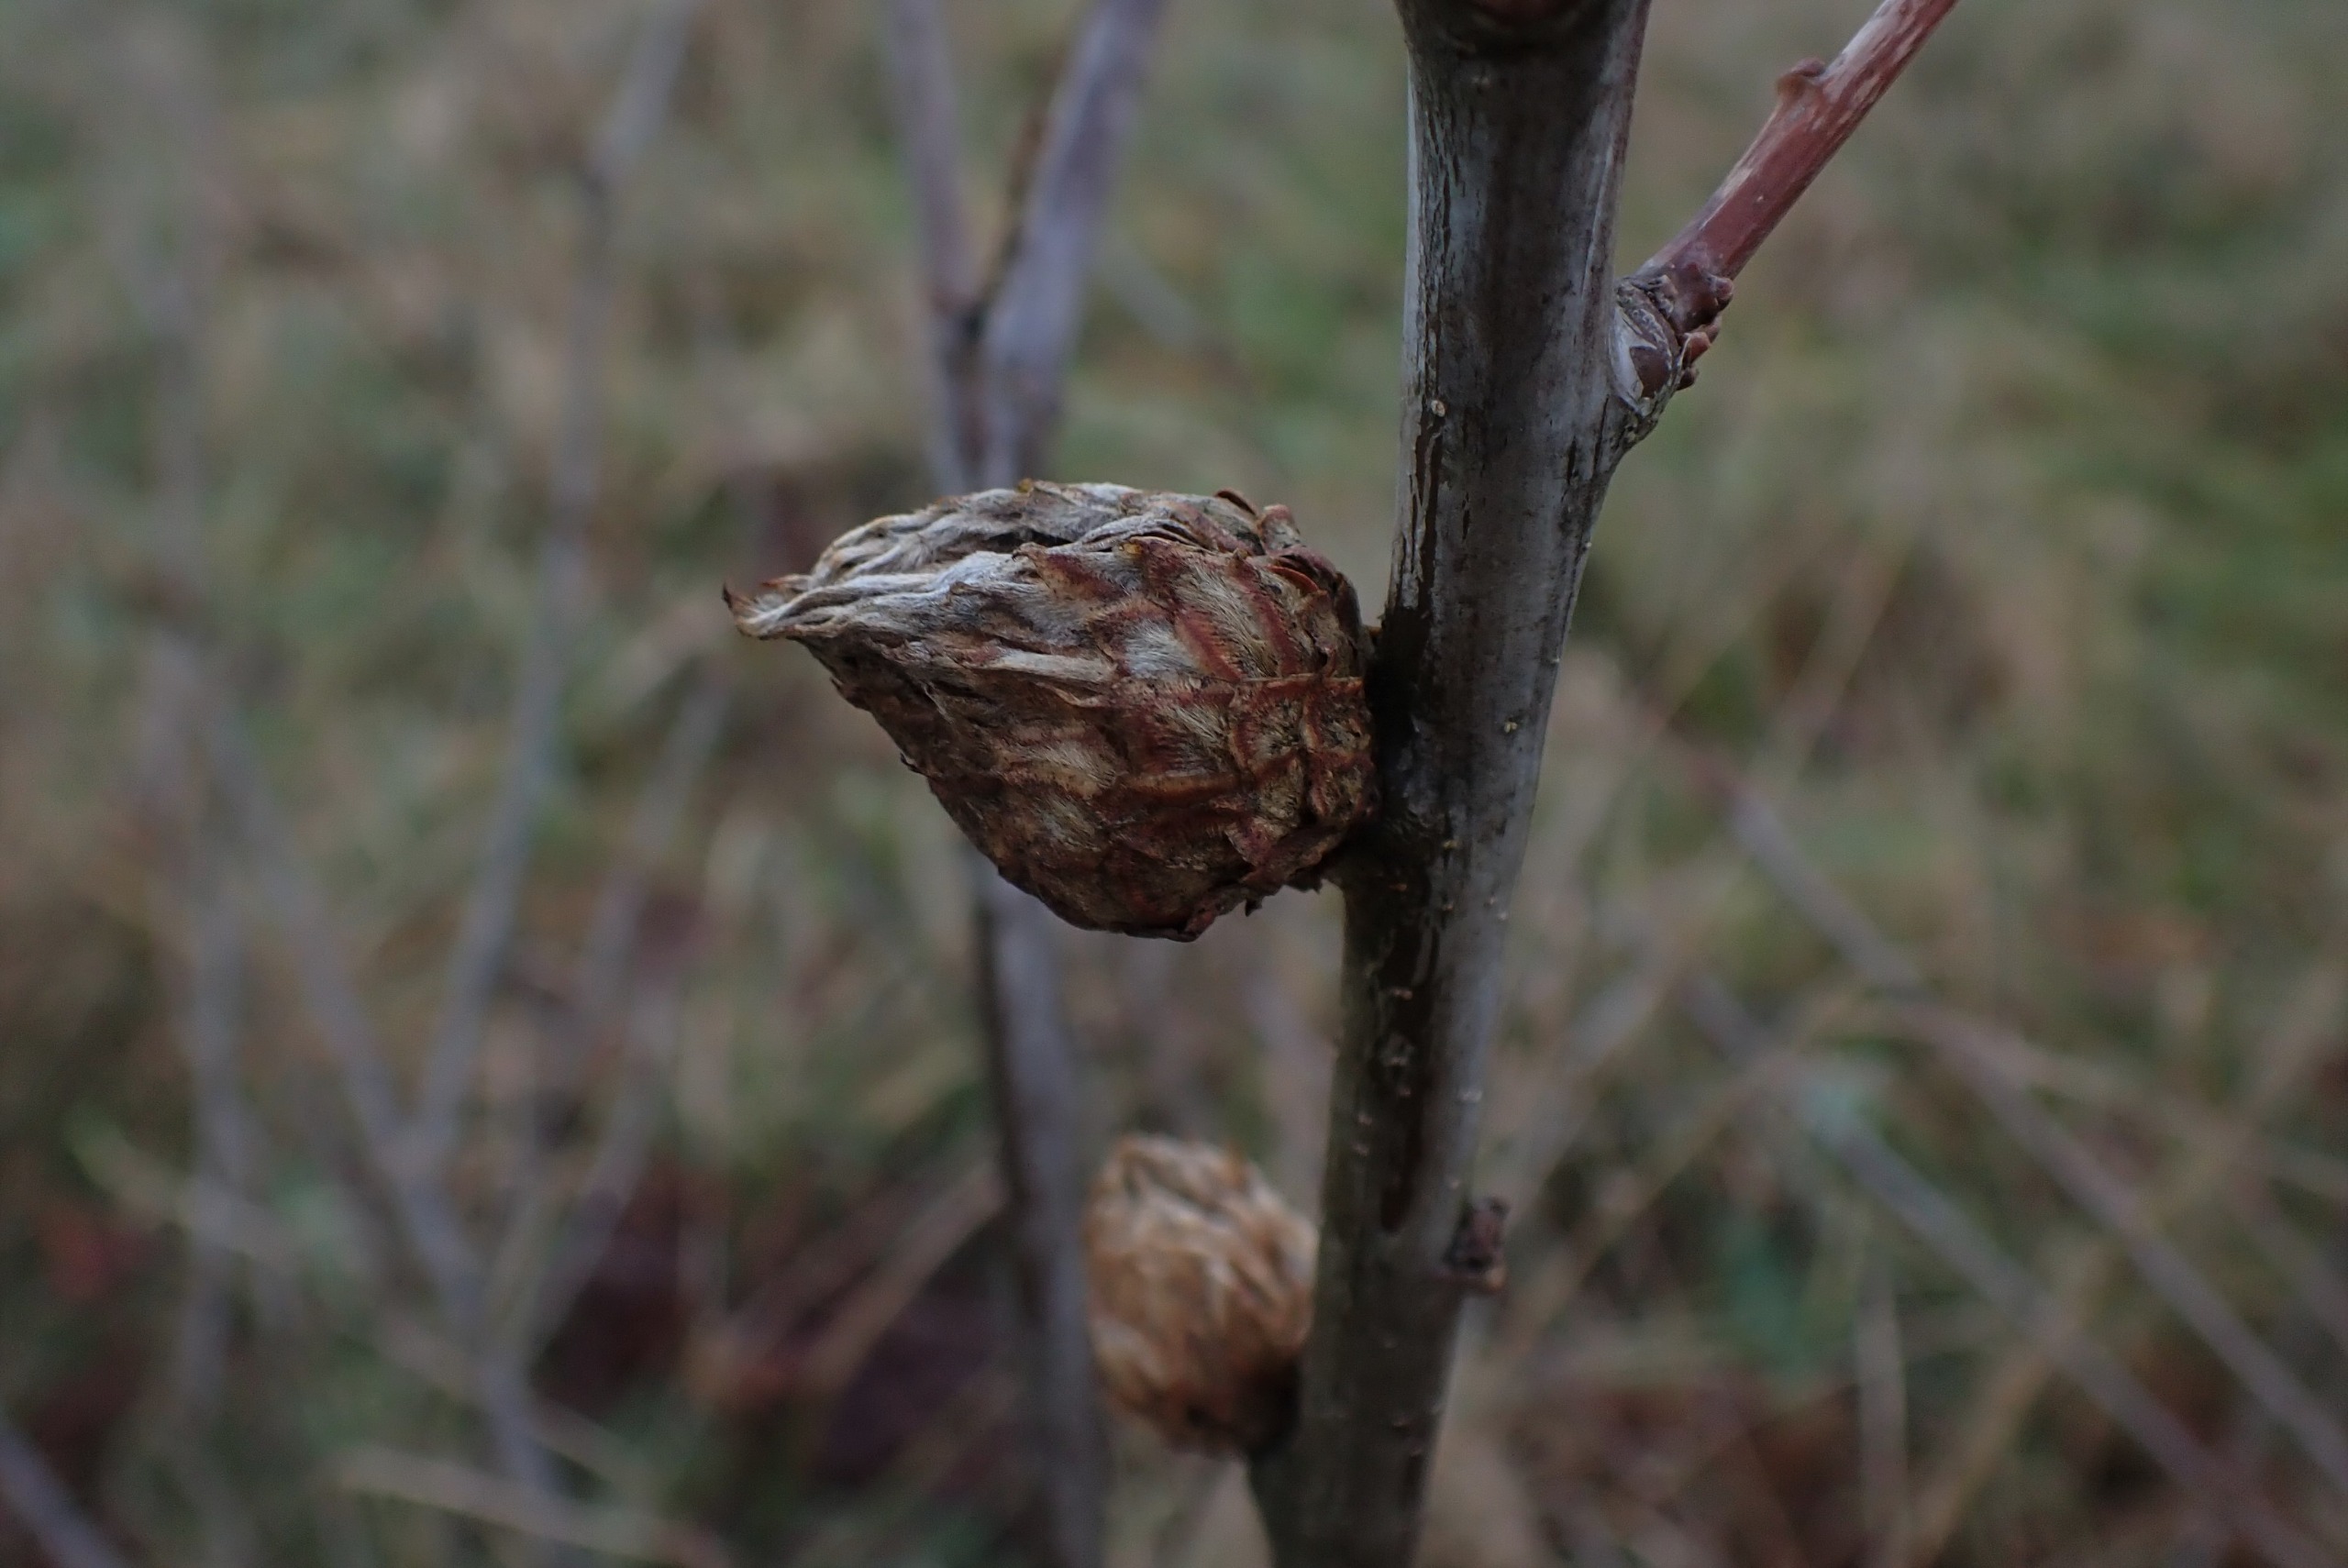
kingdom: Animalia
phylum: Arthropoda
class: Insecta
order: Hymenoptera
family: Cynipidae
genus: Andricus
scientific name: Andricus foecundatrix
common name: Artiskokgalhveps
